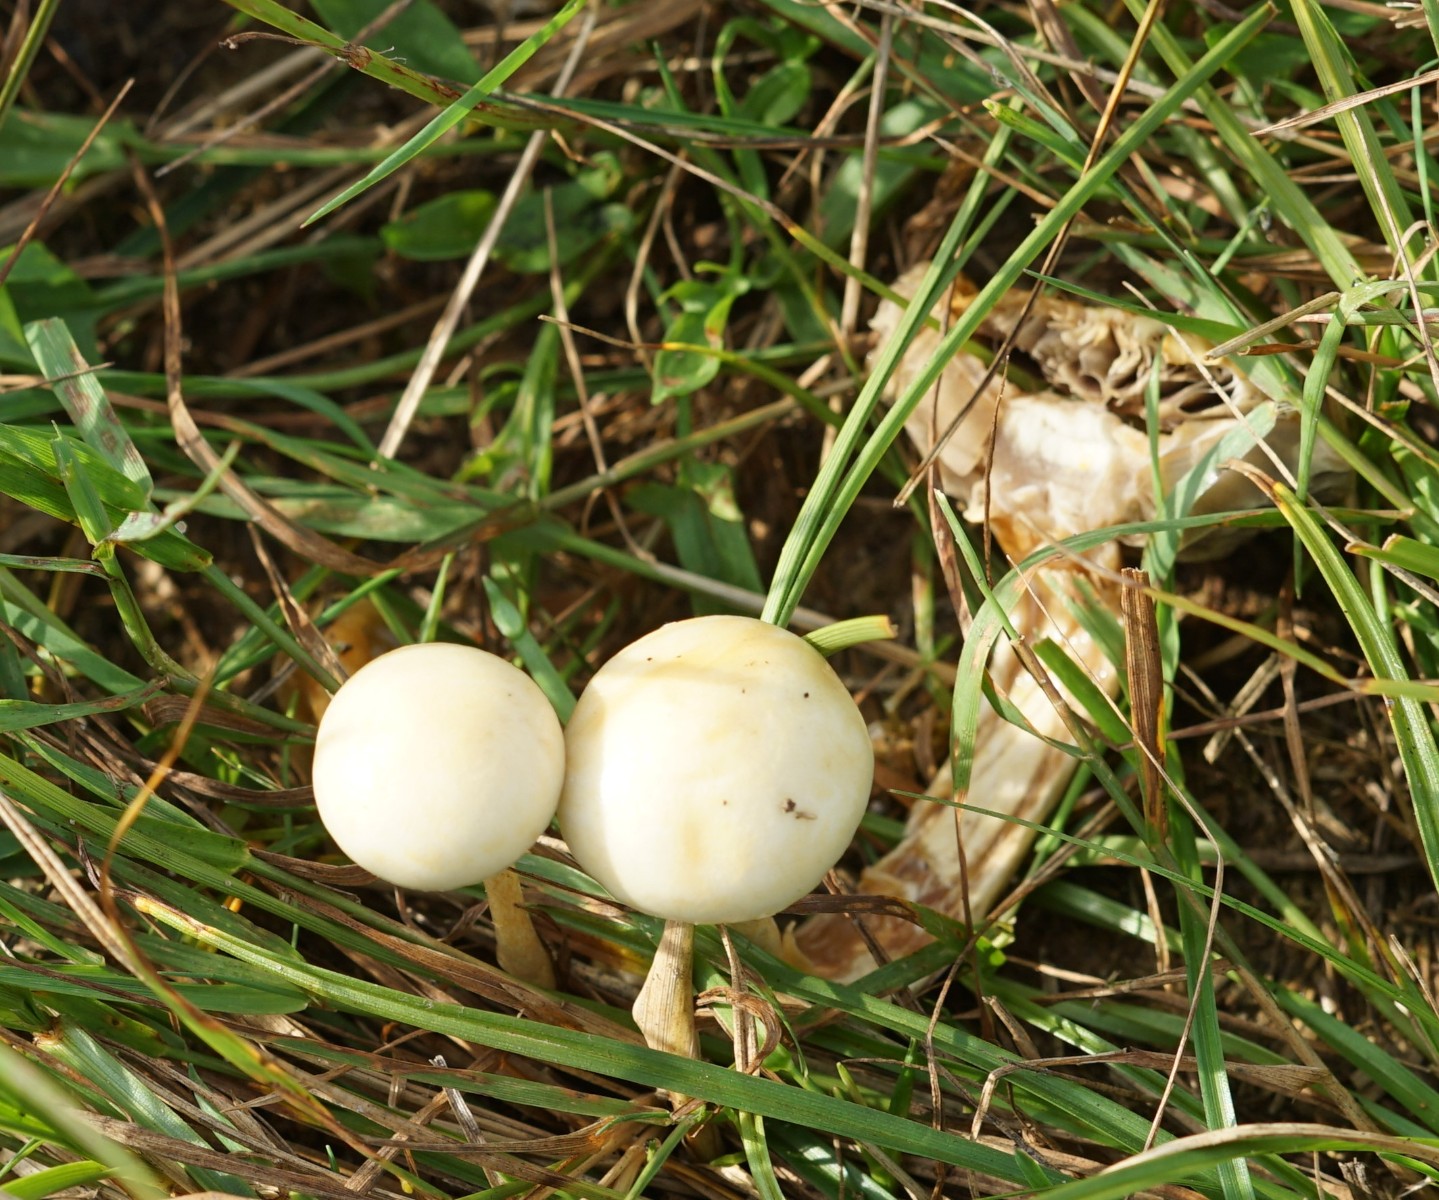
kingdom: Fungi
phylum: Basidiomycota
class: Agaricomycetes
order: Agaricales
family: Strophariaceae
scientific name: Strophariaceae
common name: bredbladfamilien
